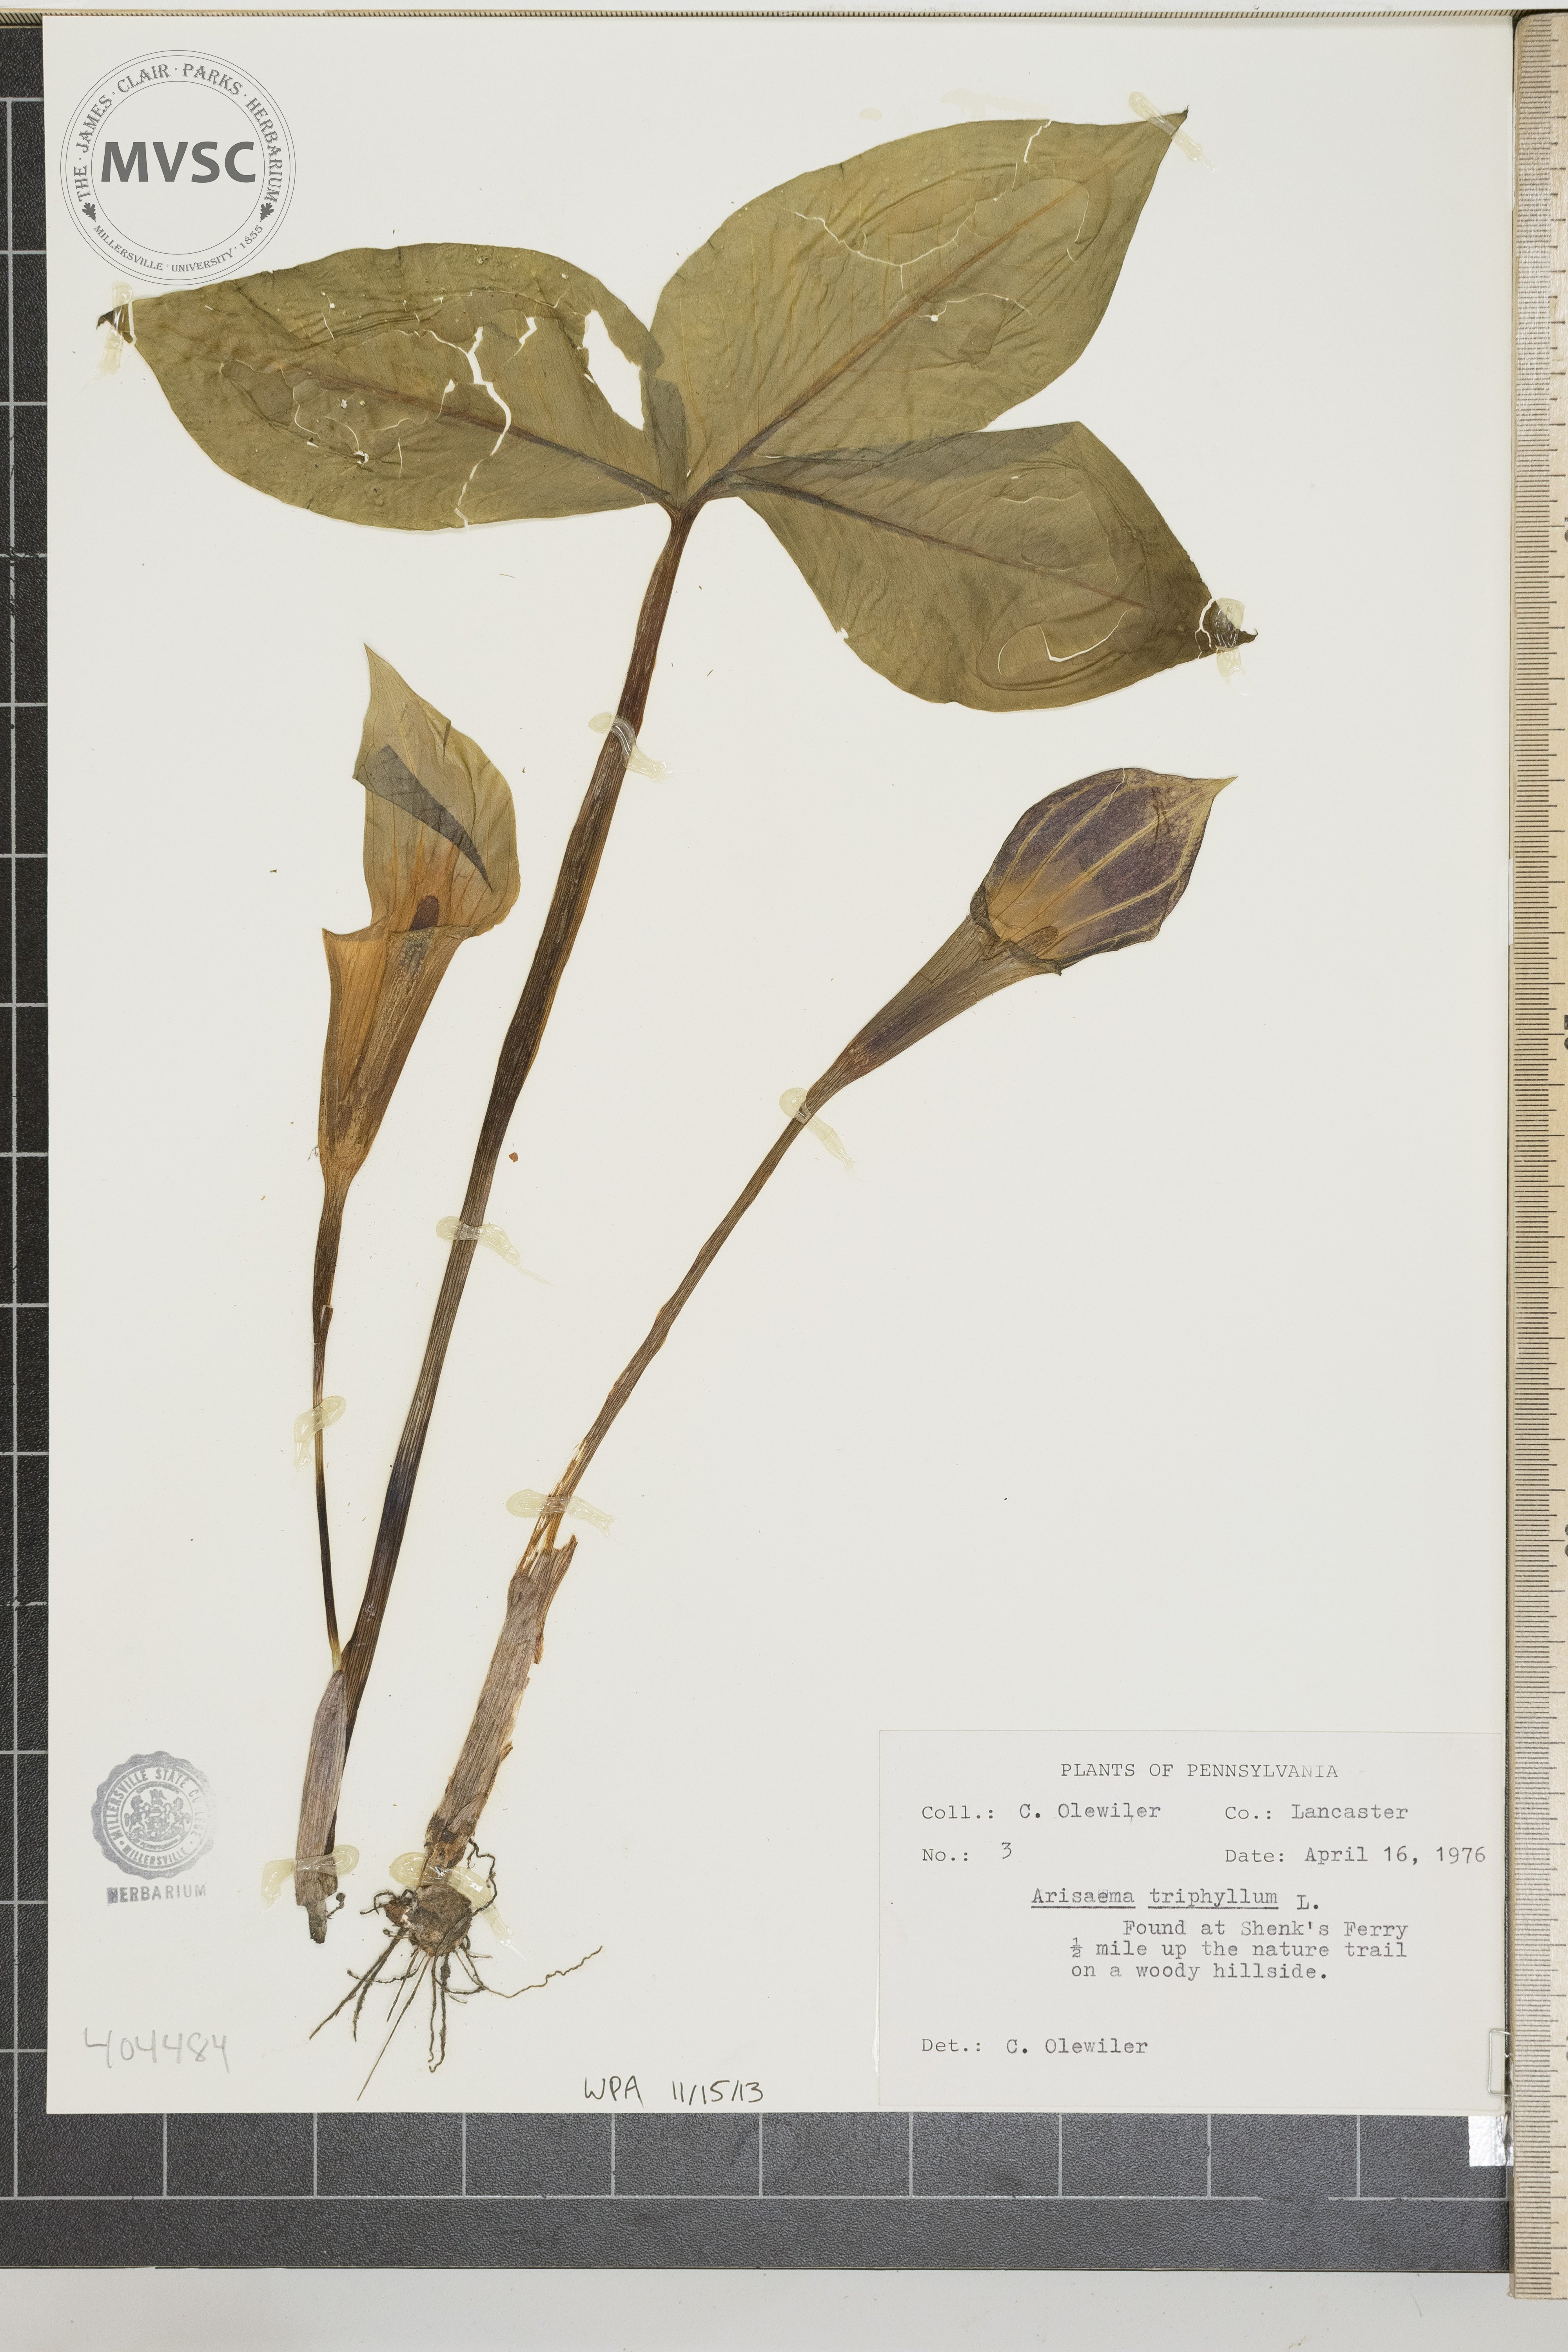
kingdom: Plantae
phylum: Tracheophyta
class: Liliopsida
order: Alismatales
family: Araceae
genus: Arisaema
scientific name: Arisaema triphyllum
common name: Jack-in-the-pulpit
